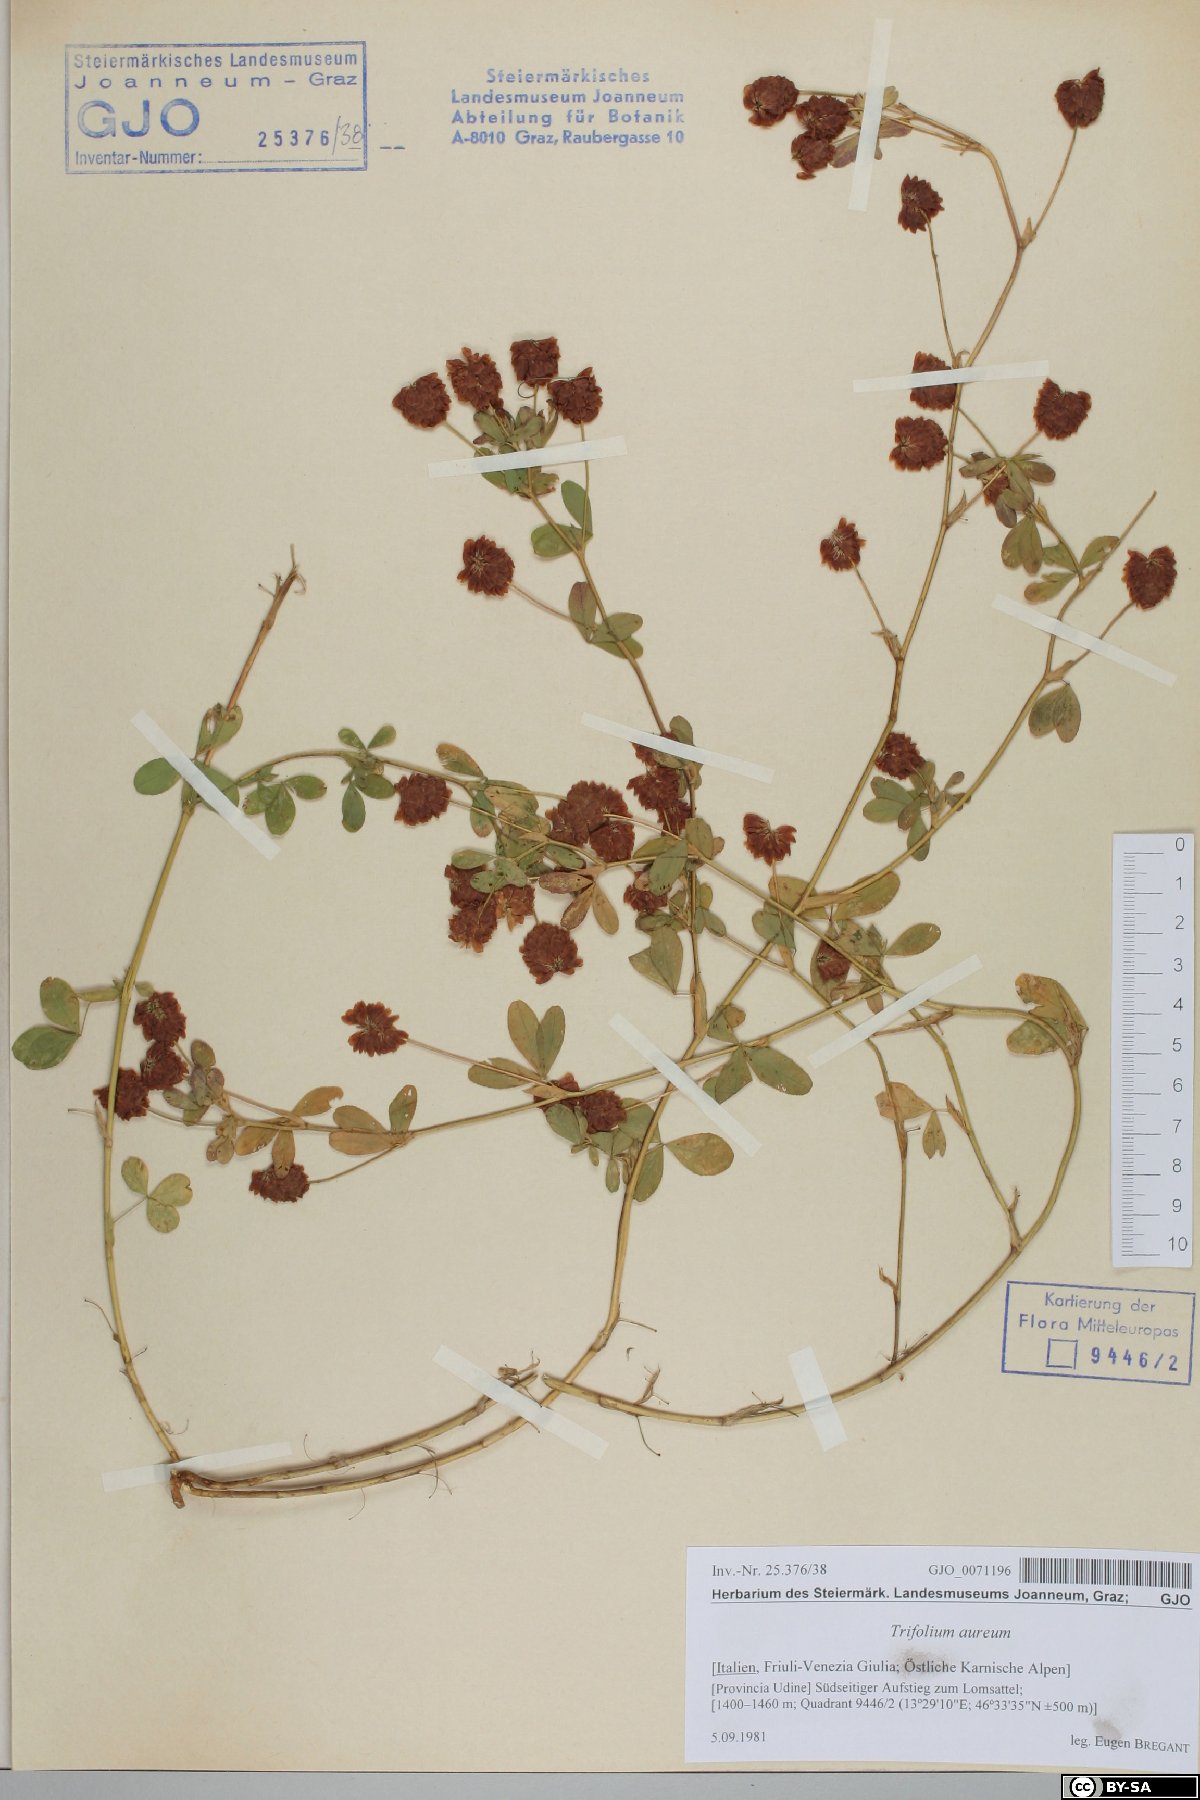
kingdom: Plantae
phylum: Tracheophyta
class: Magnoliopsida
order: Fabales
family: Fabaceae
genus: Trifolium
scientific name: Trifolium aureum
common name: Golden clover
